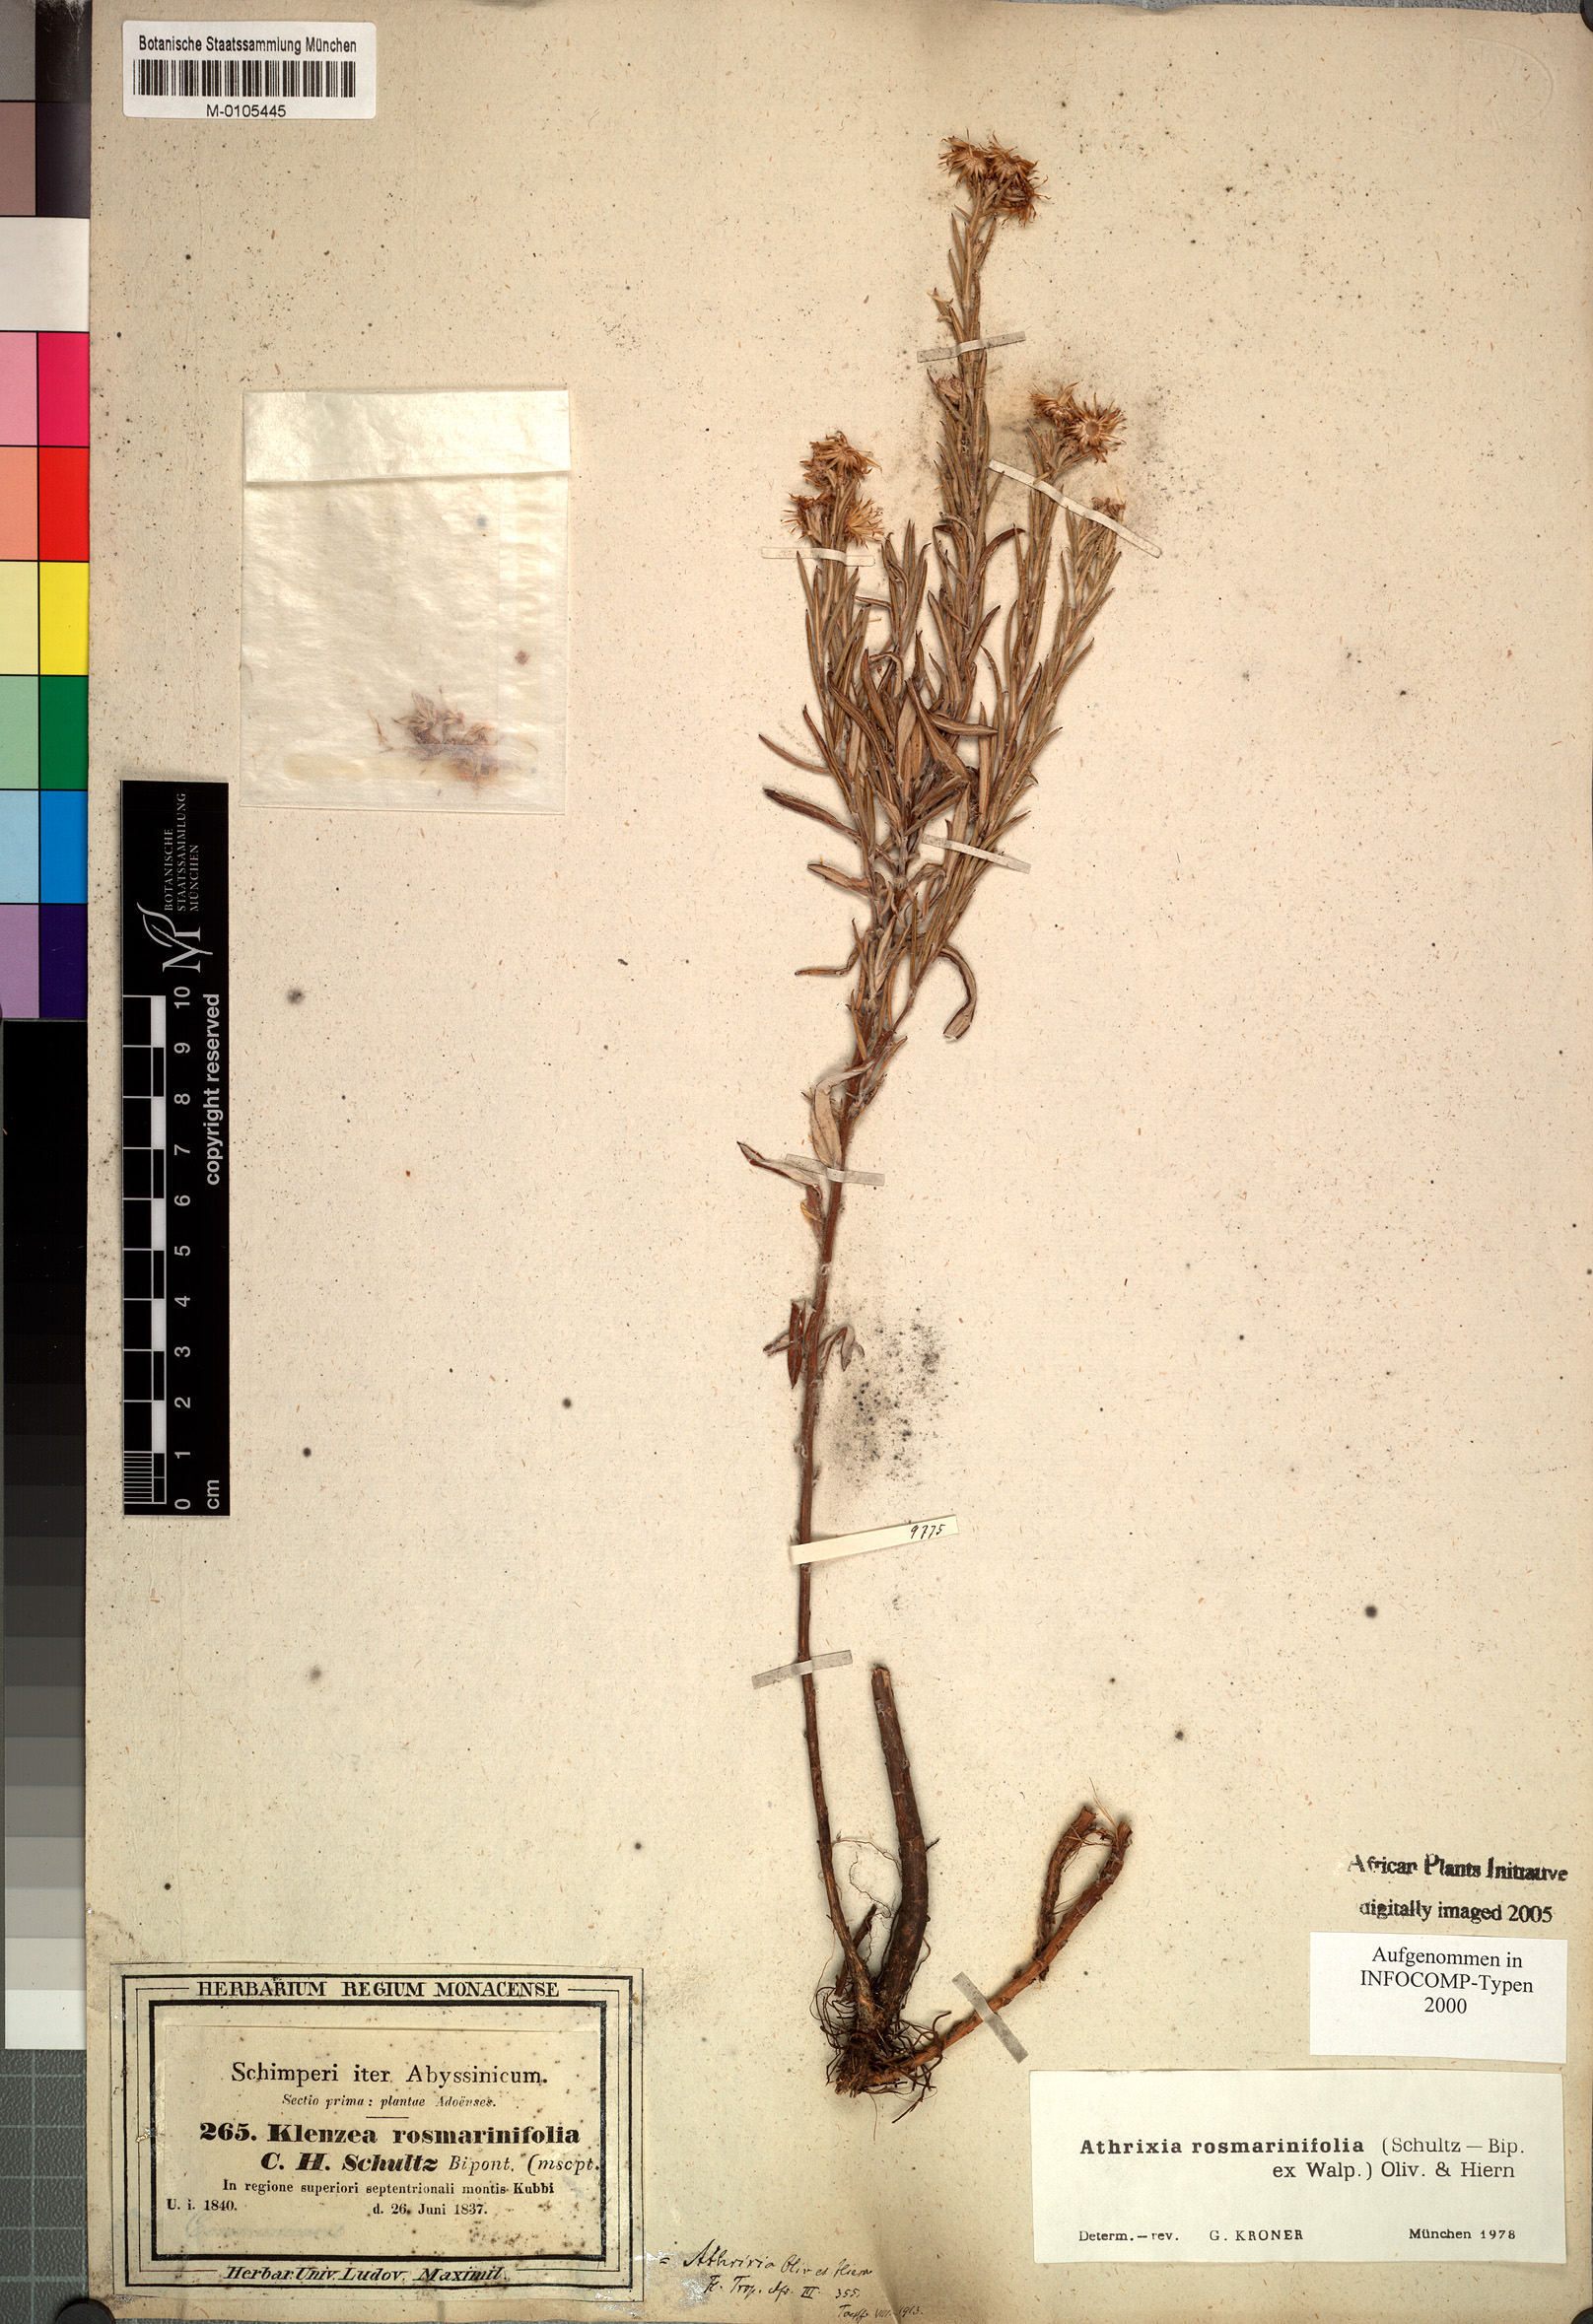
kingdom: Plantae
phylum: Tracheophyta
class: Magnoliopsida
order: Asterales
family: Asteraceae
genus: Athrixia
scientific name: Athrixia rosmarinifolia
